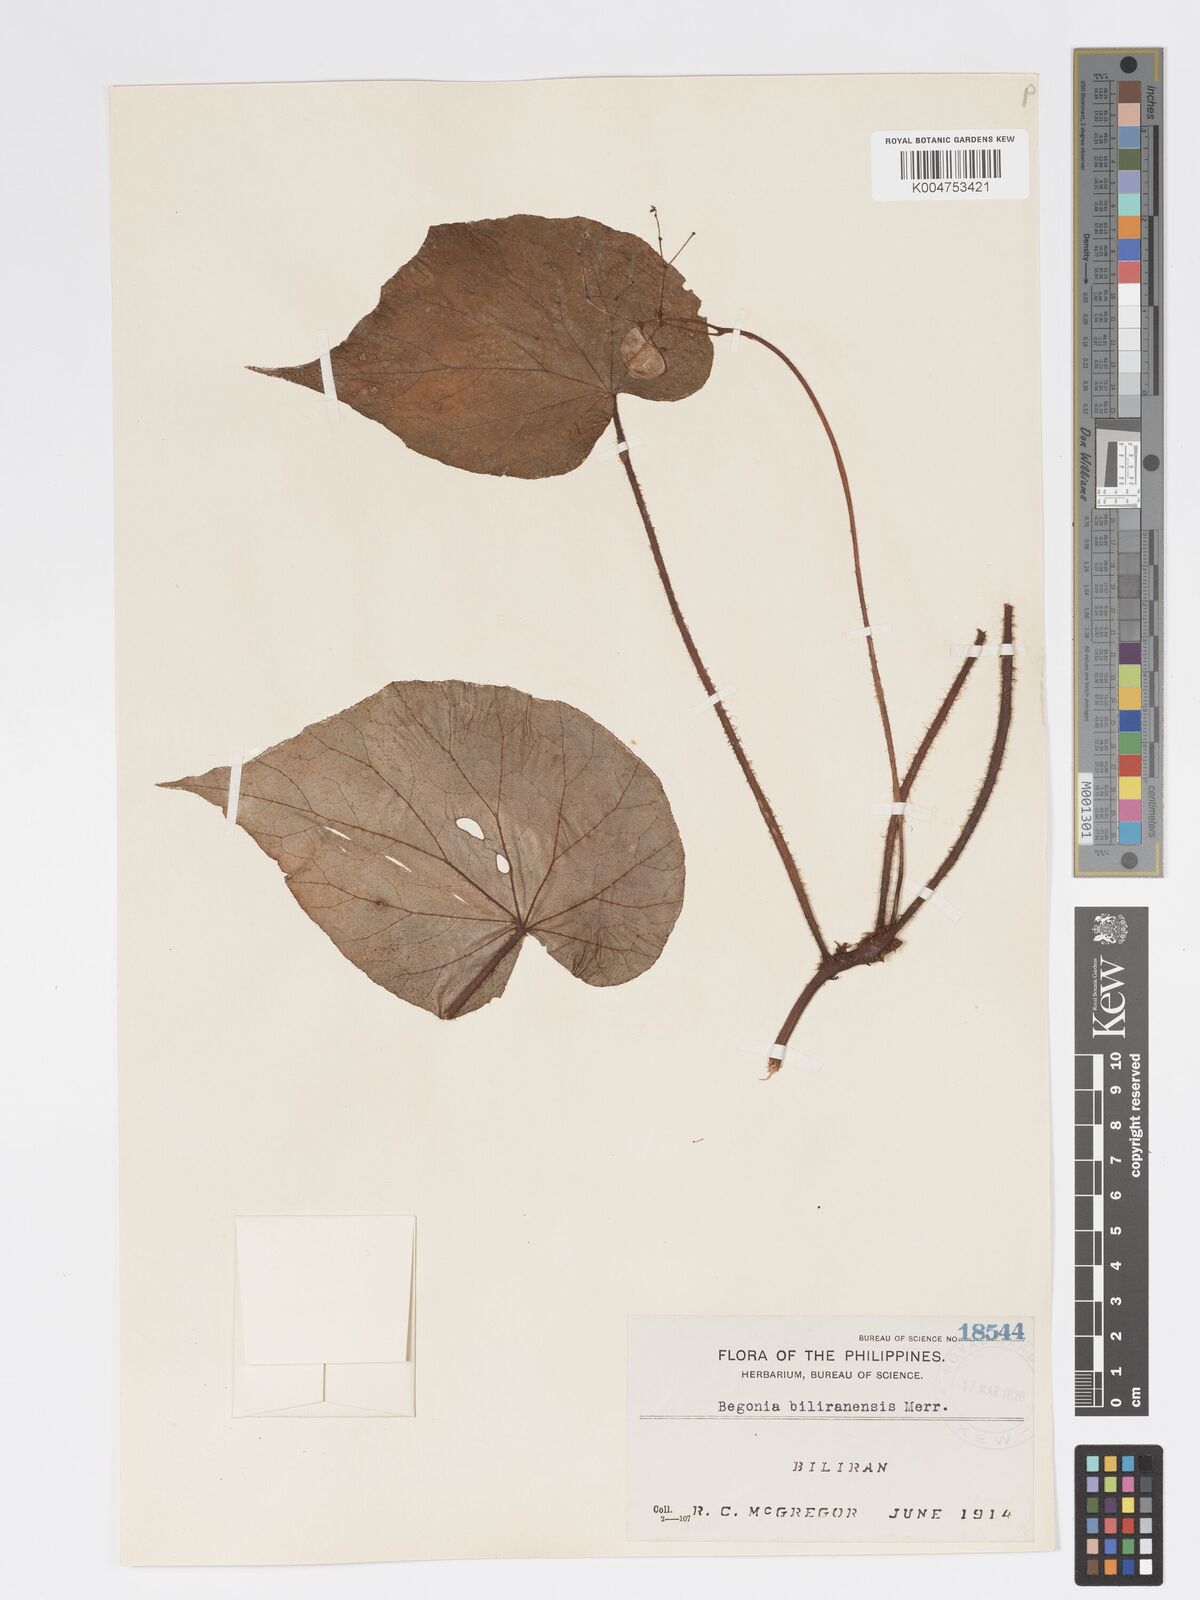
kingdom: Plantae
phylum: Tracheophyta
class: Magnoliopsida
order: Cucurbitales
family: Begoniaceae
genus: Begonia
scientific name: Begonia biliranensis
